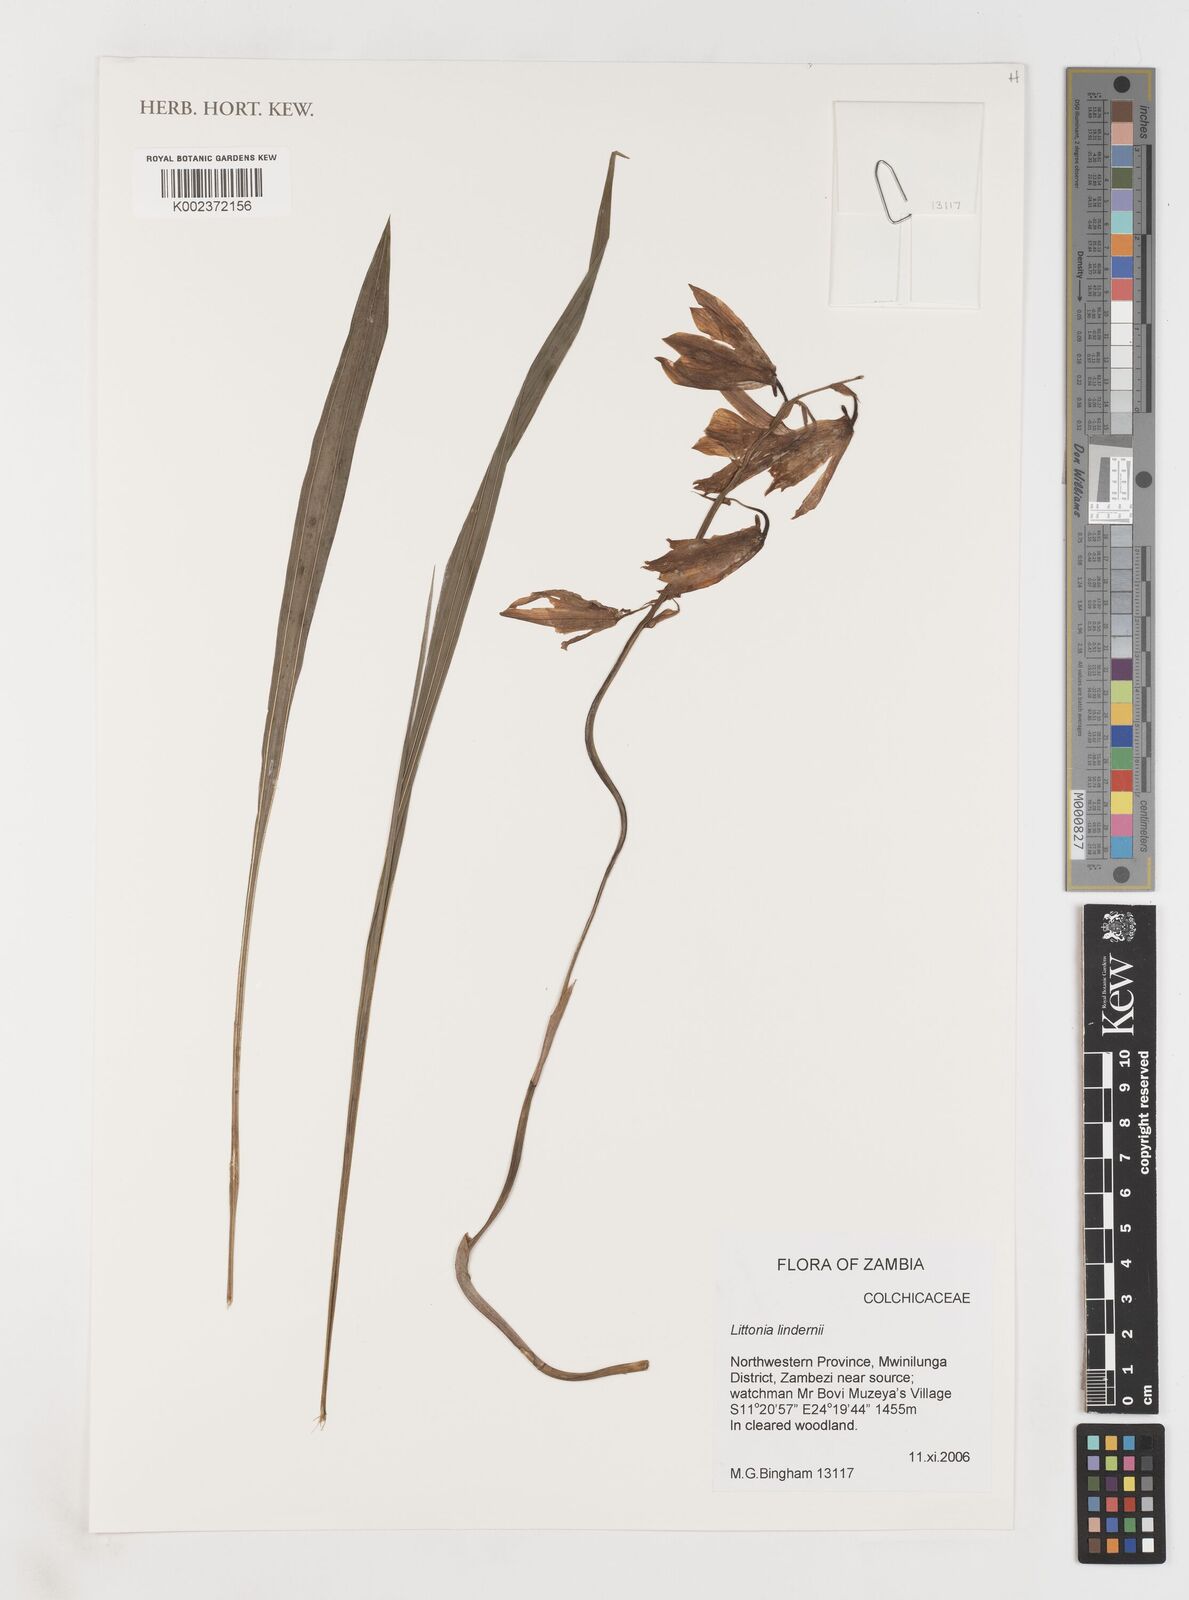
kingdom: Plantae
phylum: Tracheophyta
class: Liliopsida
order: Liliales
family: Colchicaceae
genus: Gloriosa
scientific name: Gloriosa lindenii
